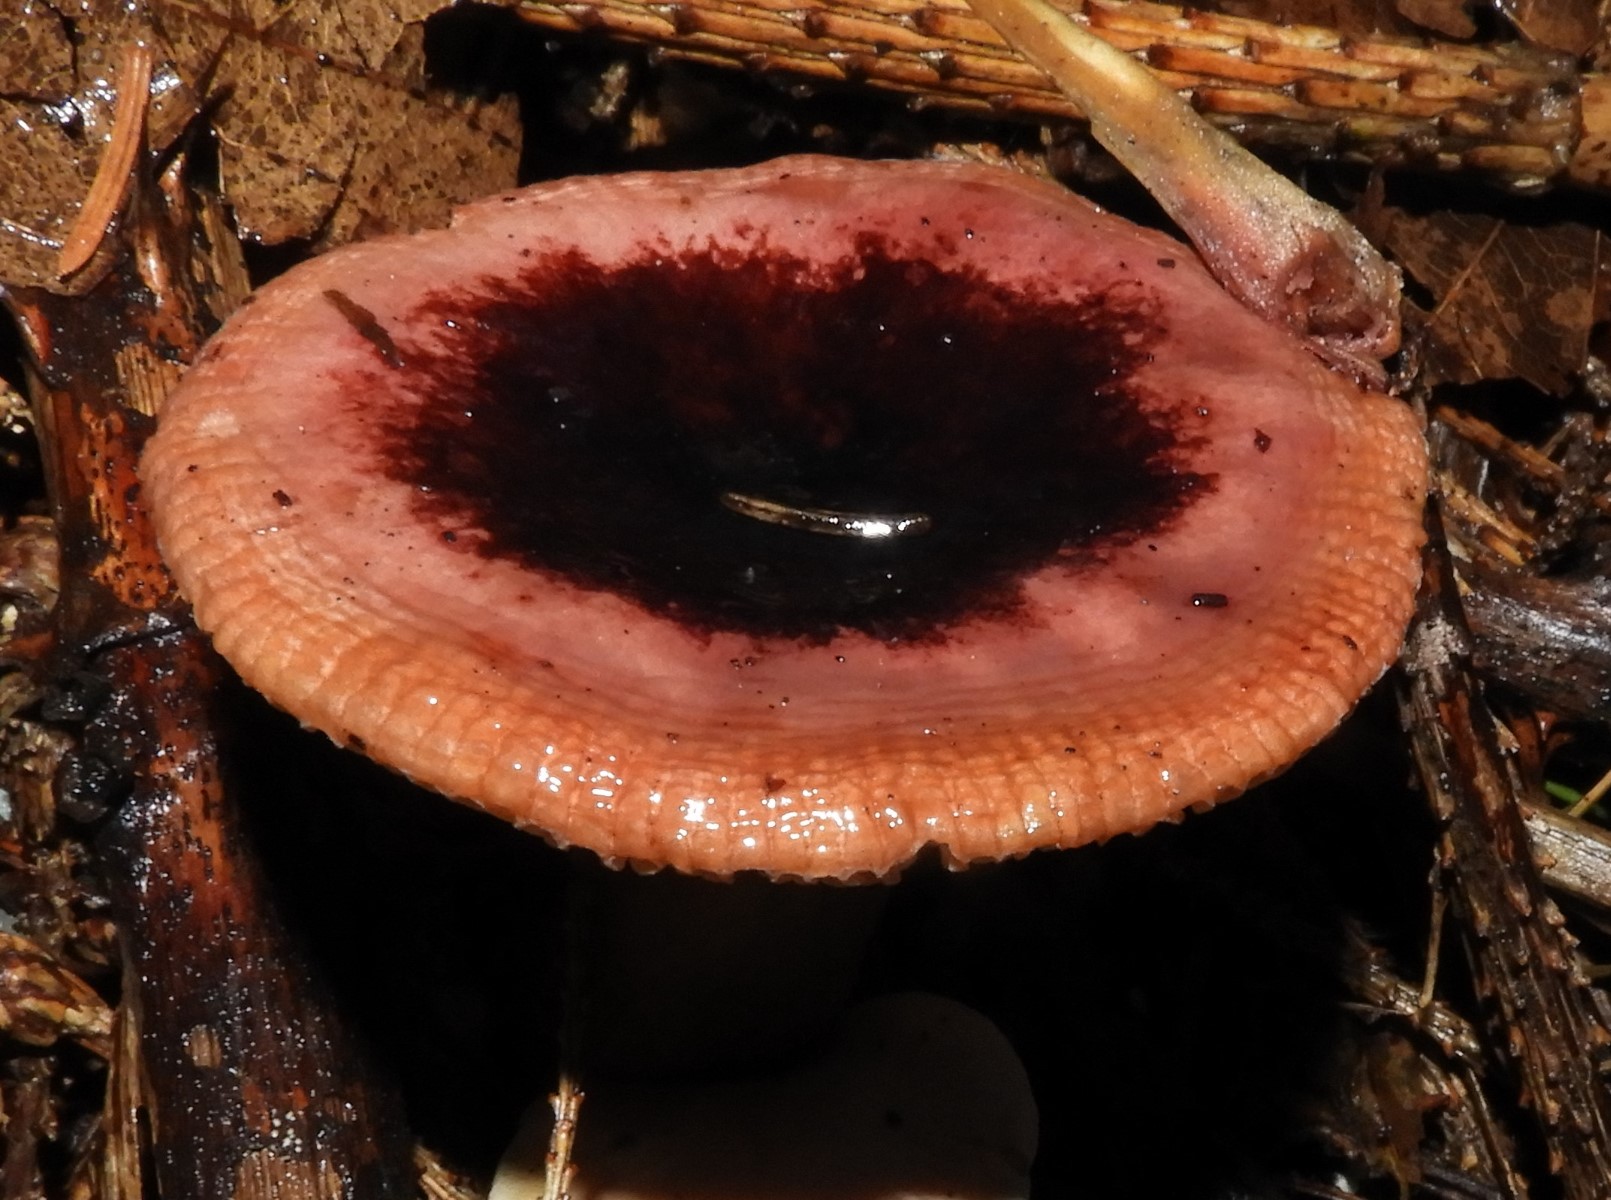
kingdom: Fungi
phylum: Basidiomycota
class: Agaricomycetes
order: Russulales
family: Russulaceae
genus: Russula
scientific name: Russula queletii
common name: Quélets skørhat
